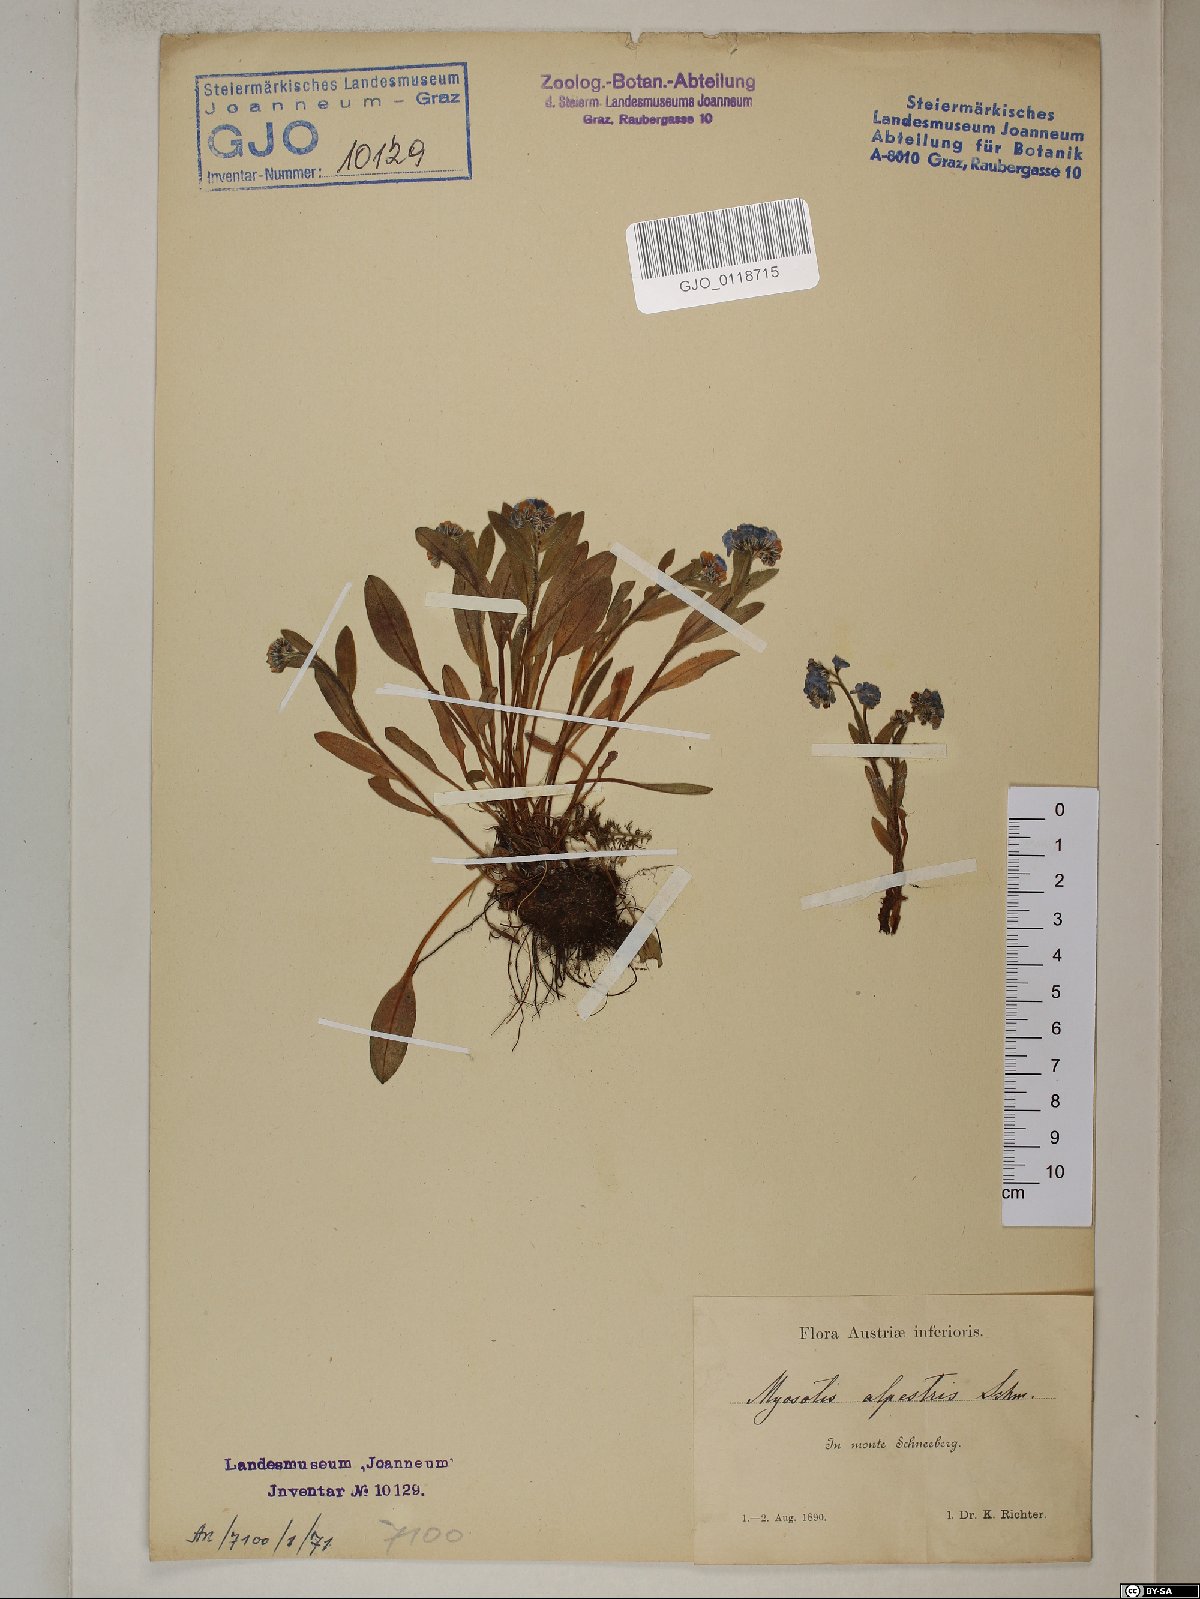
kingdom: Plantae
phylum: Tracheophyta
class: Magnoliopsida
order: Boraginales
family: Boraginaceae
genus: Myosotis
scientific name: Myosotis alpestris
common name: Alpine forget-me-not
